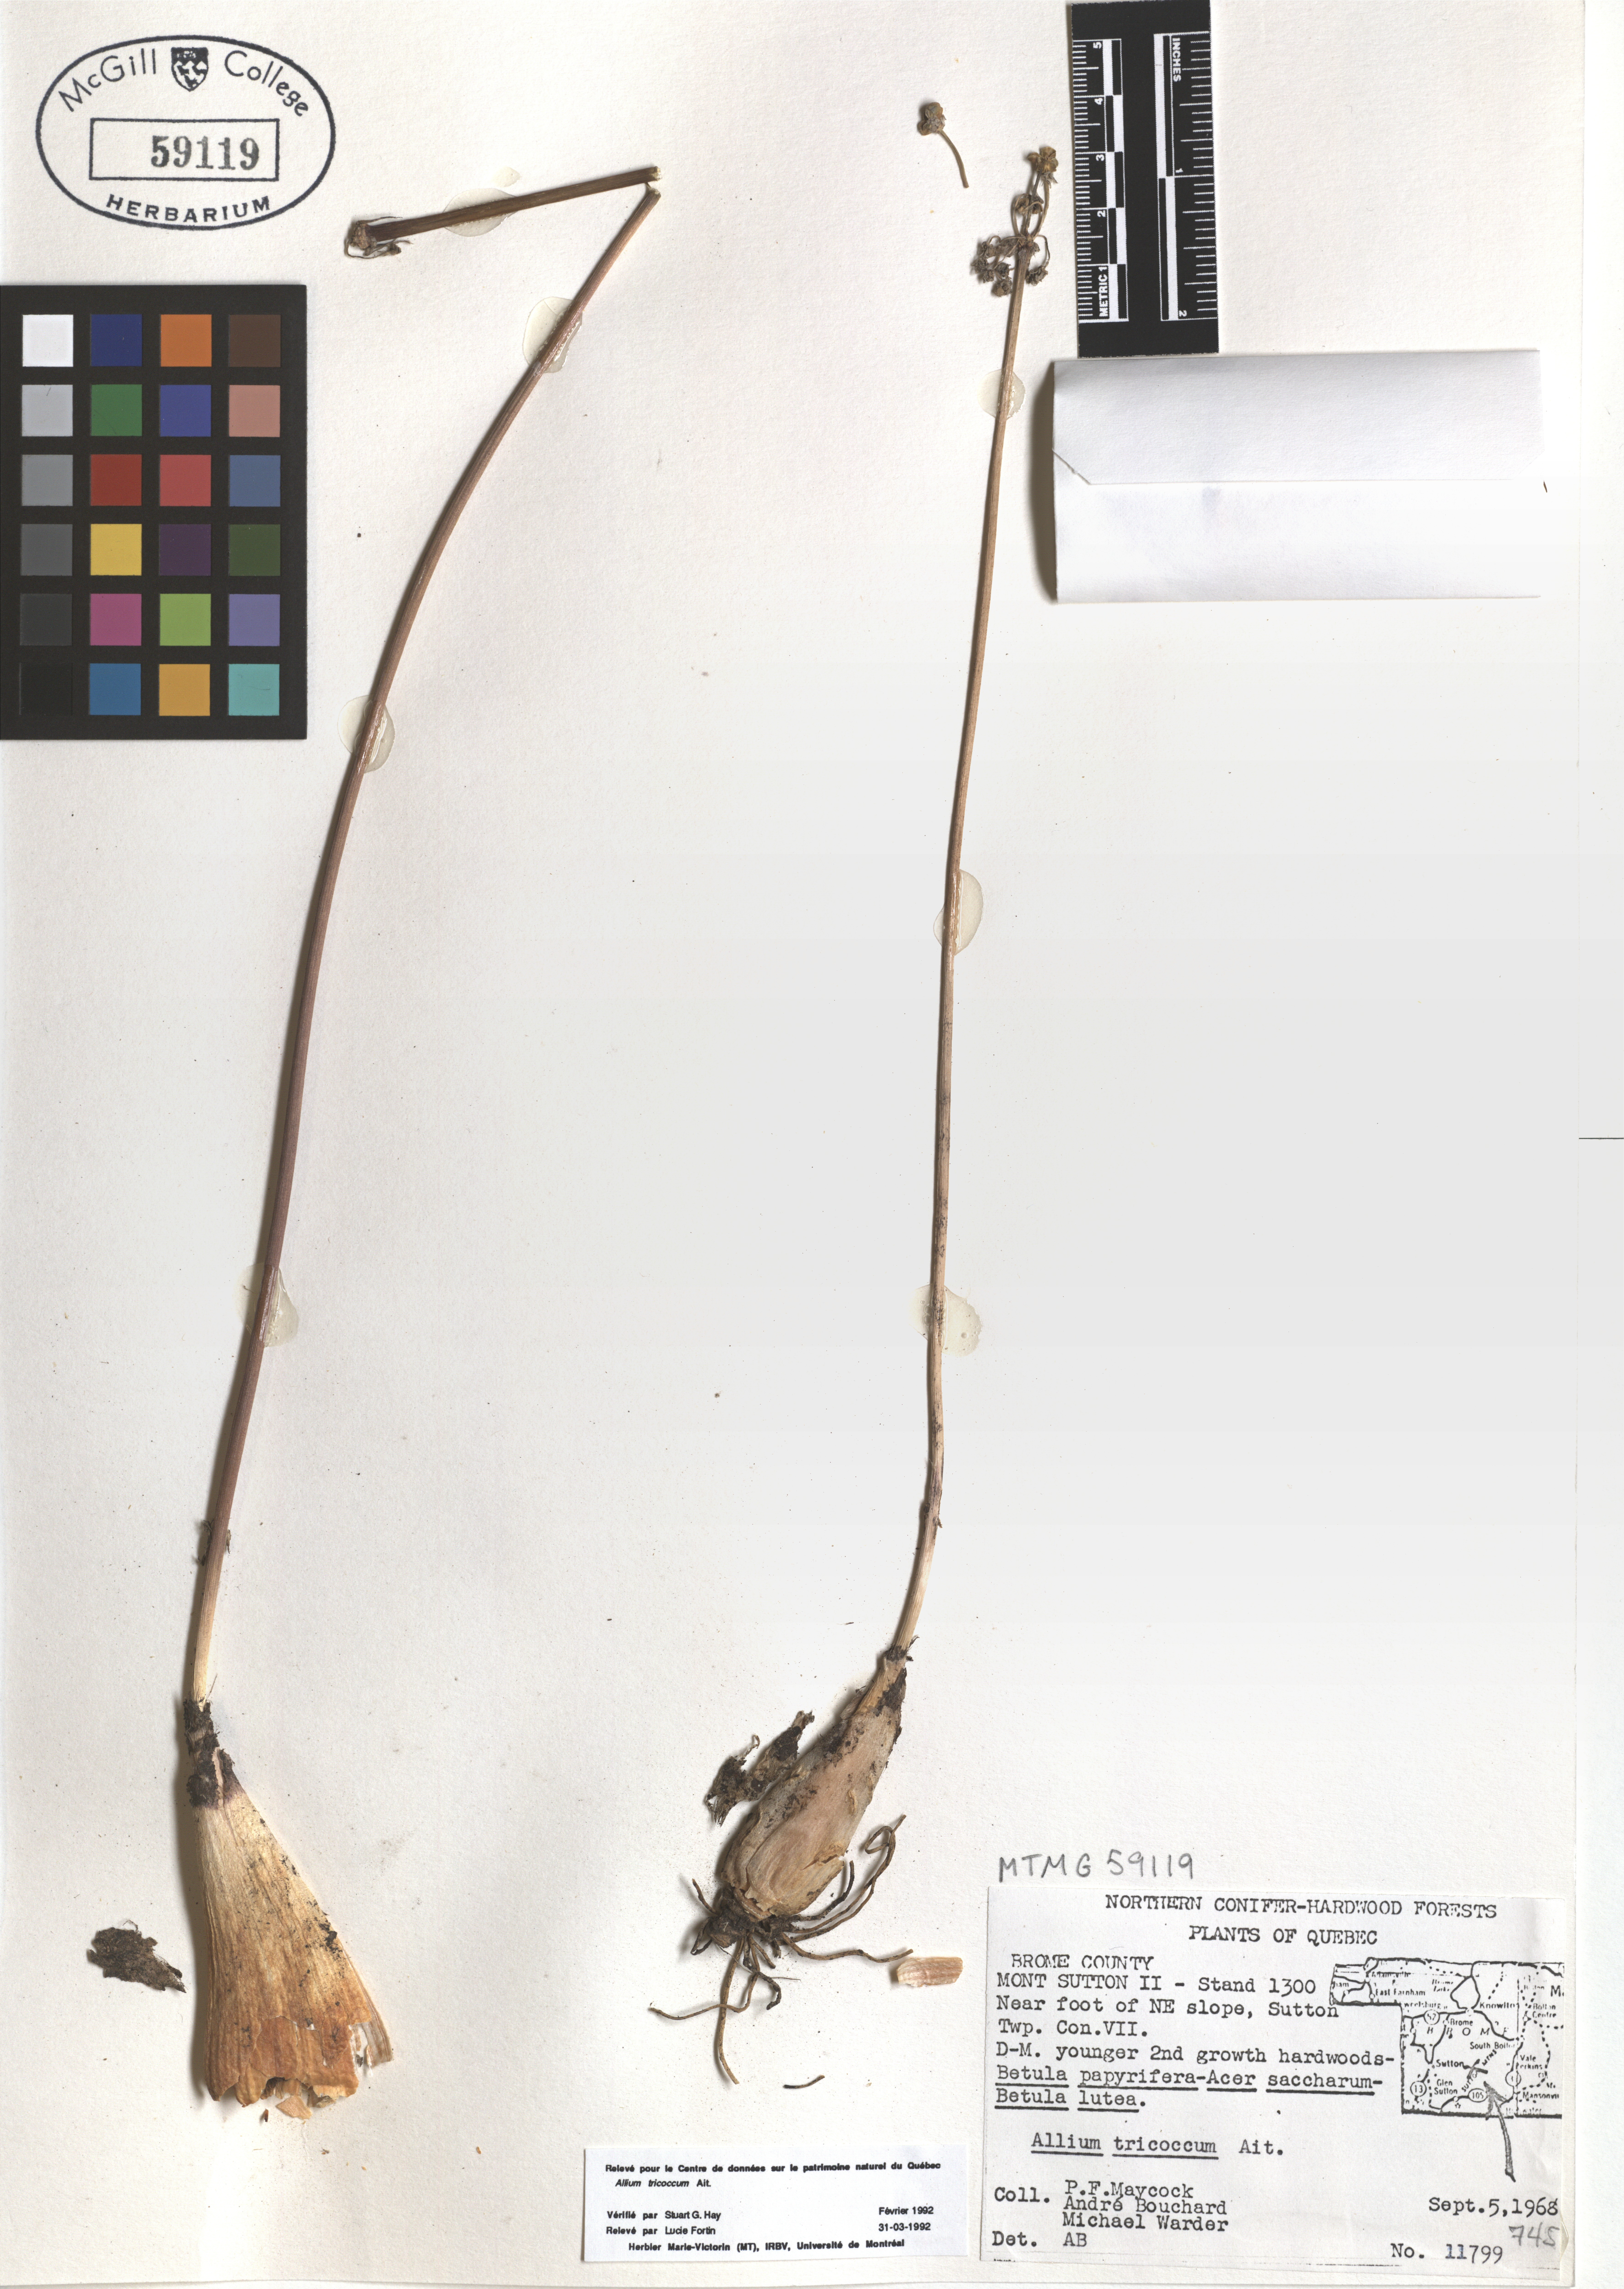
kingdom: Plantae
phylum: Tracheophyta
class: Liliopsida
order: Asparagales
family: Amaryllidaceae
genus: Allium
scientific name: Allium tricoccum
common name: Ramp
